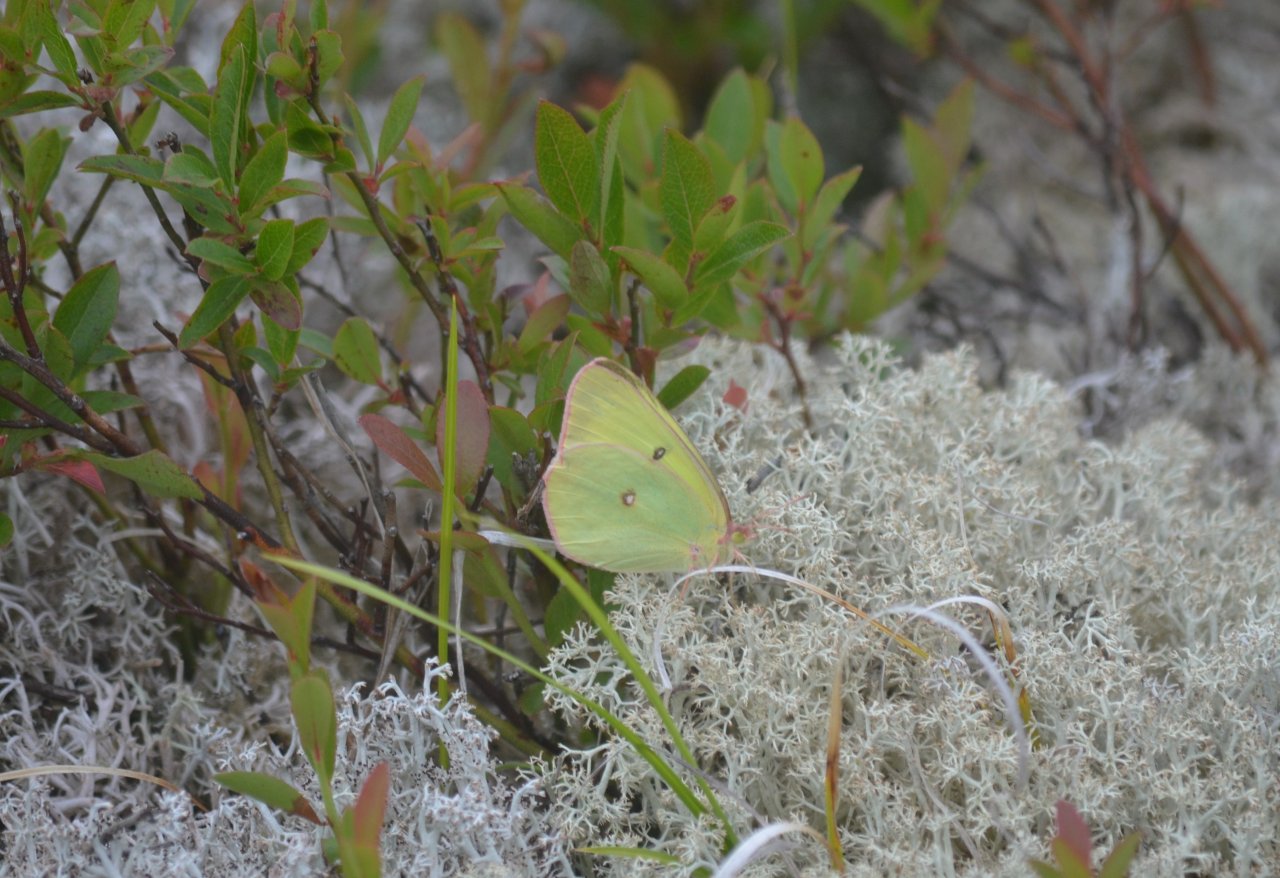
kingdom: Animalia
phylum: Arthropoda
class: Insecta
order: Lepidoptera
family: Pieridae
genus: Colias
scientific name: Colias interior
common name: Pink-edged Sulphur
